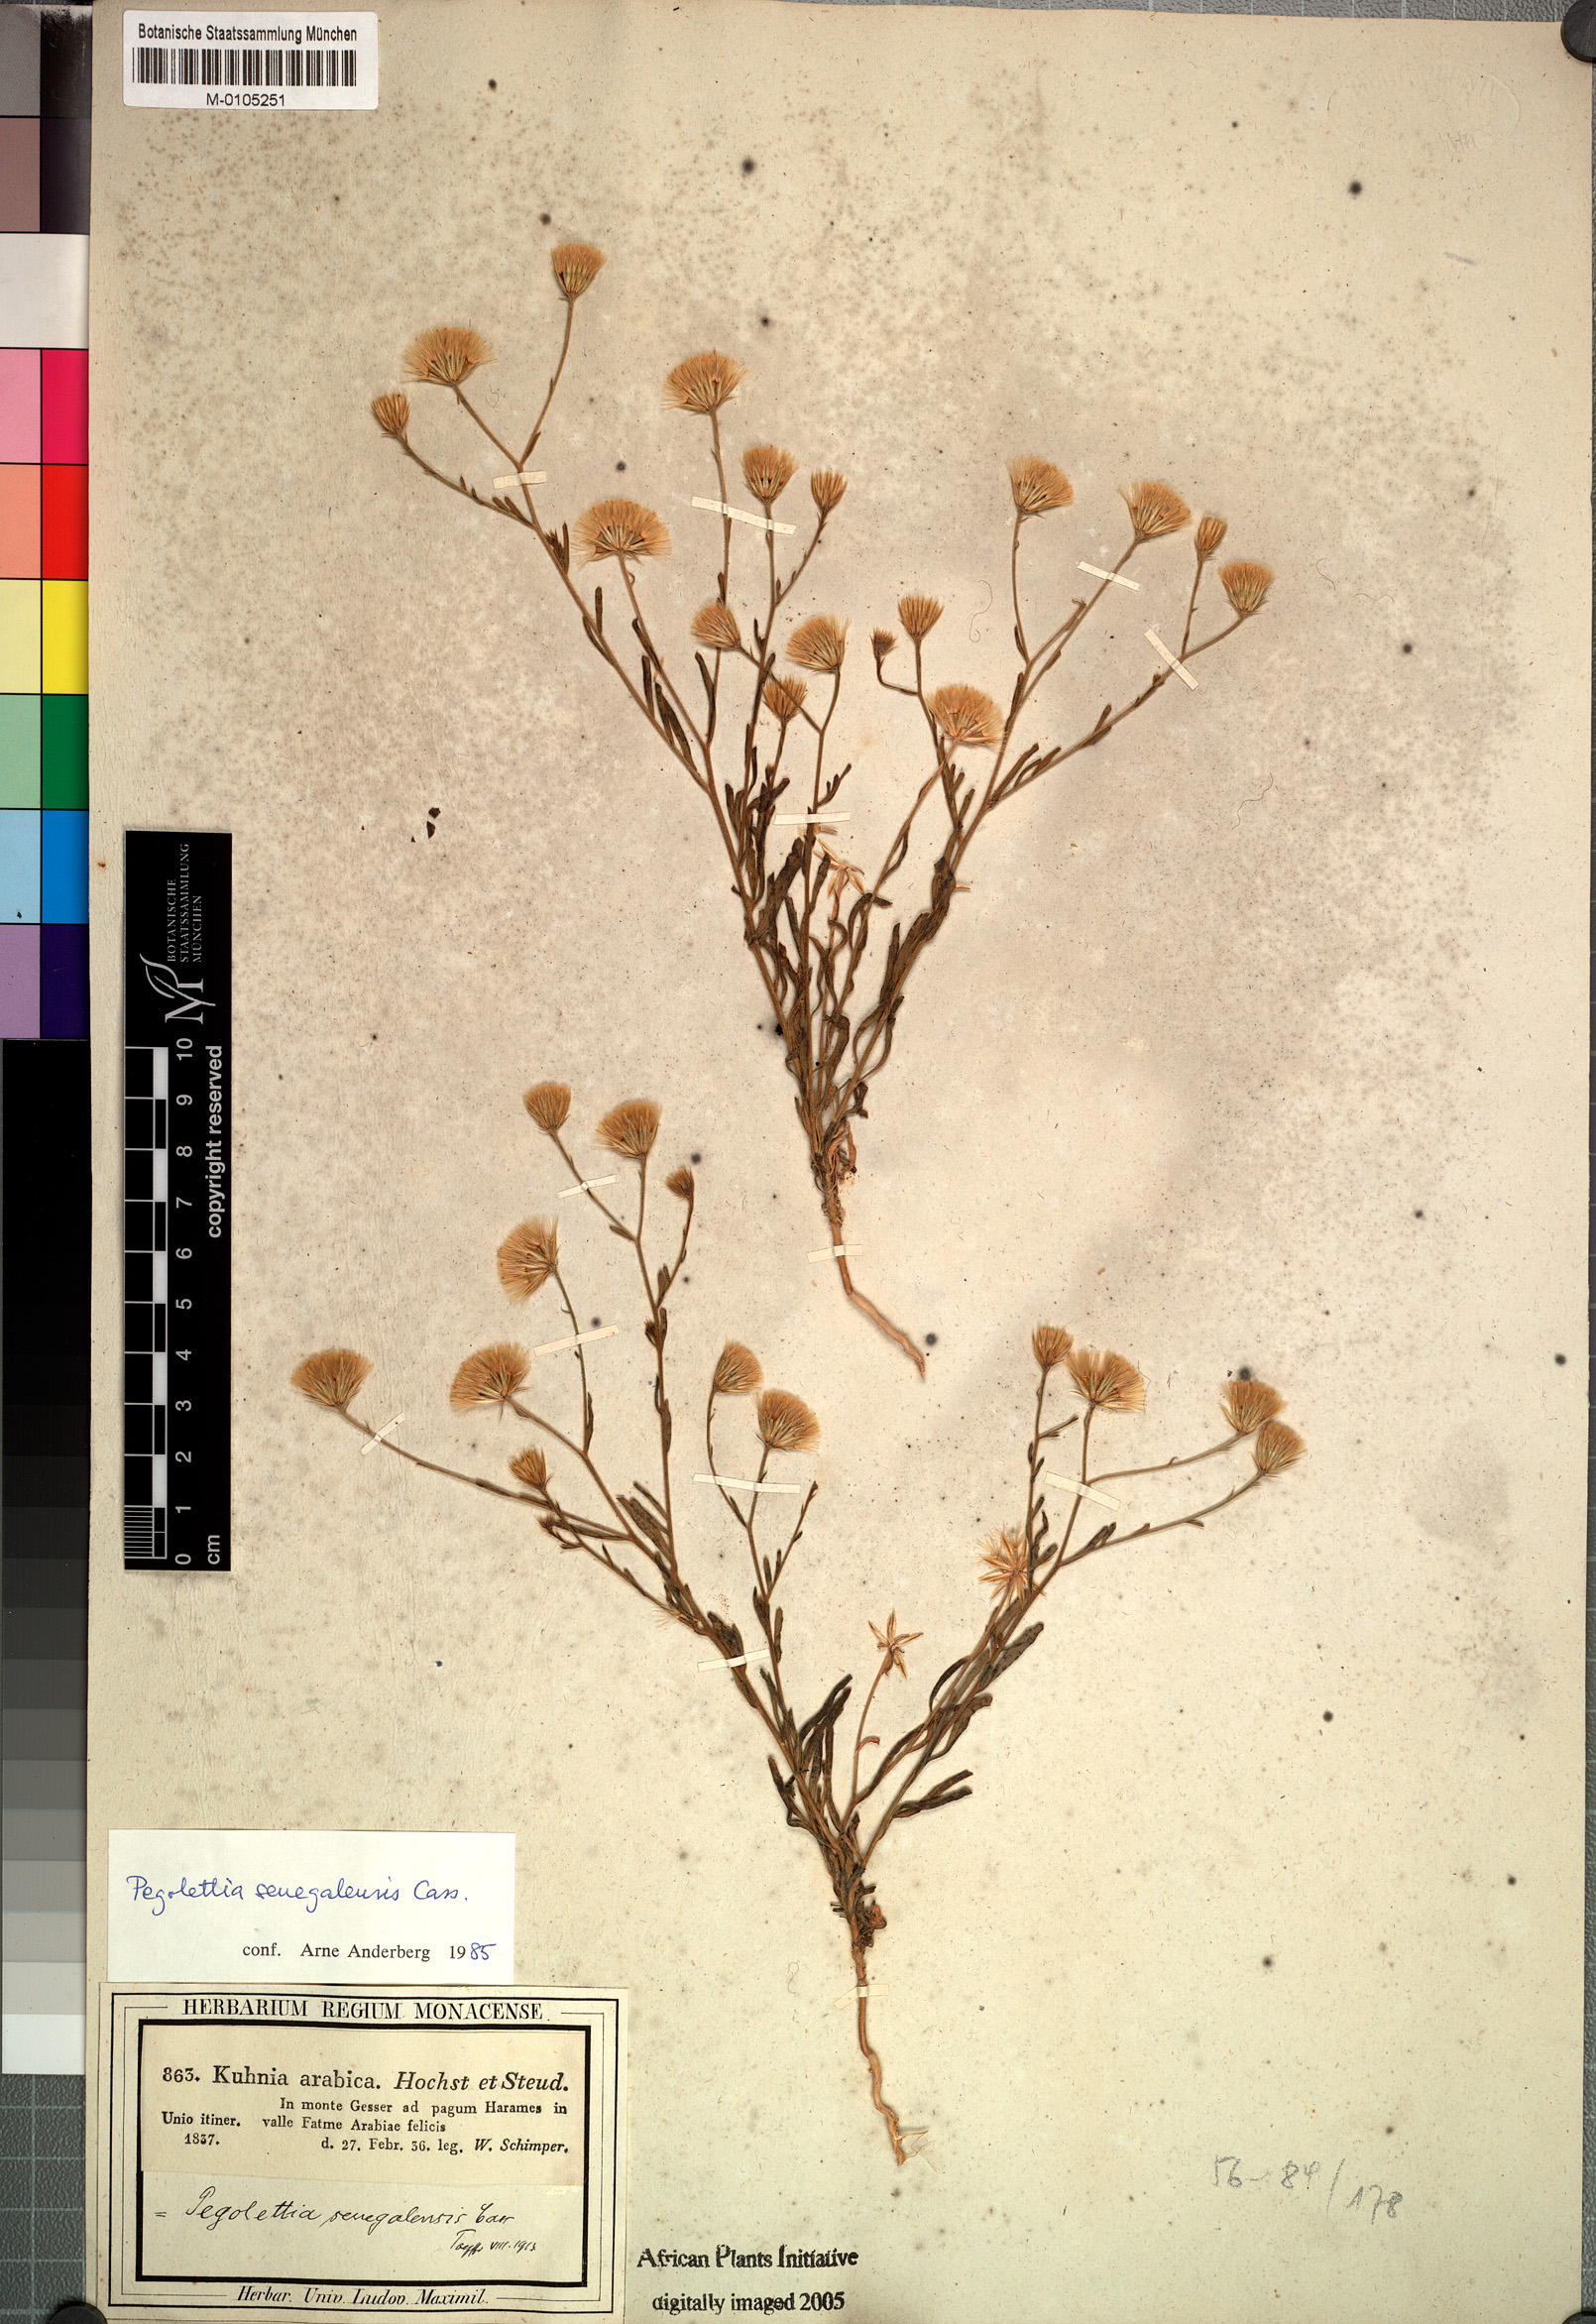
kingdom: Plantae
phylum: Tracheophyta
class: Magnoliopsida
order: Asterales
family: Asteraceae
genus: Pegolettia
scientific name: Pegolettia senegalensis
